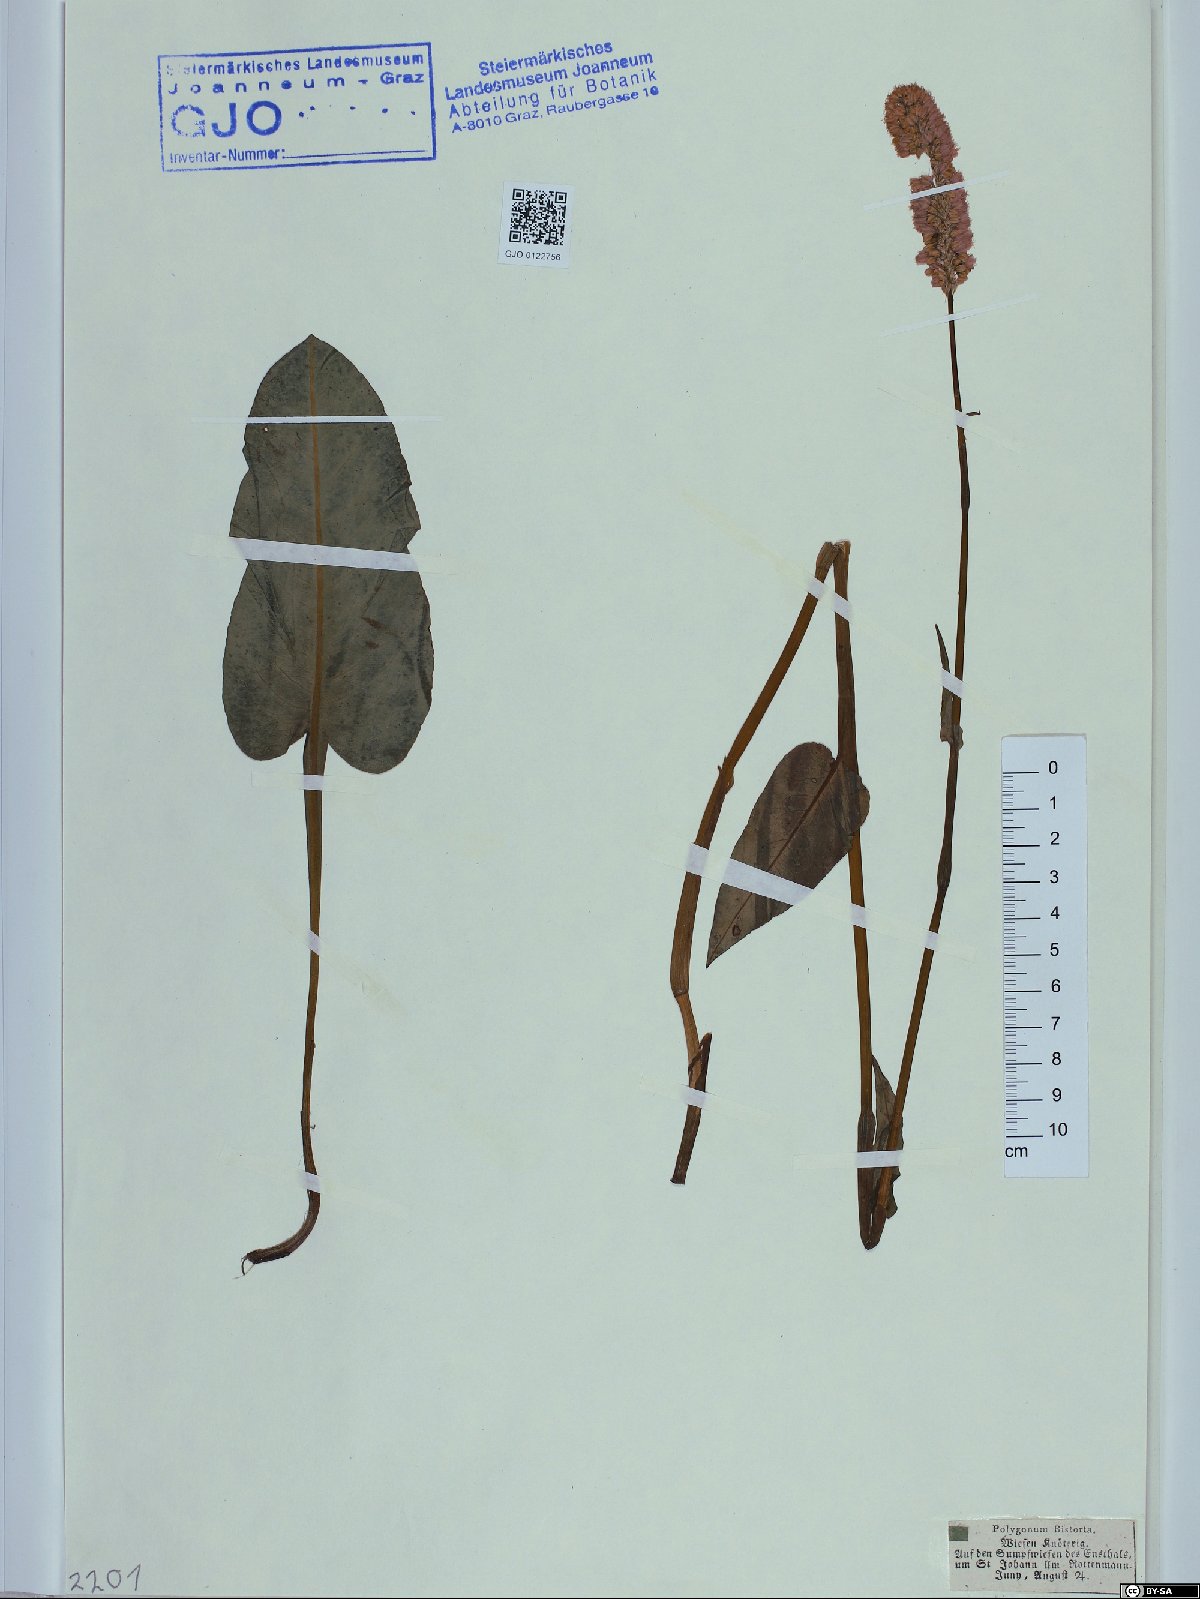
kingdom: Plantae
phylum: Tracheophyta
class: Magnoliopsida
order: Caryophyllales
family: Polygonaceae
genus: Bistorta
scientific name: Bistorta officinalis
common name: Common bistort
